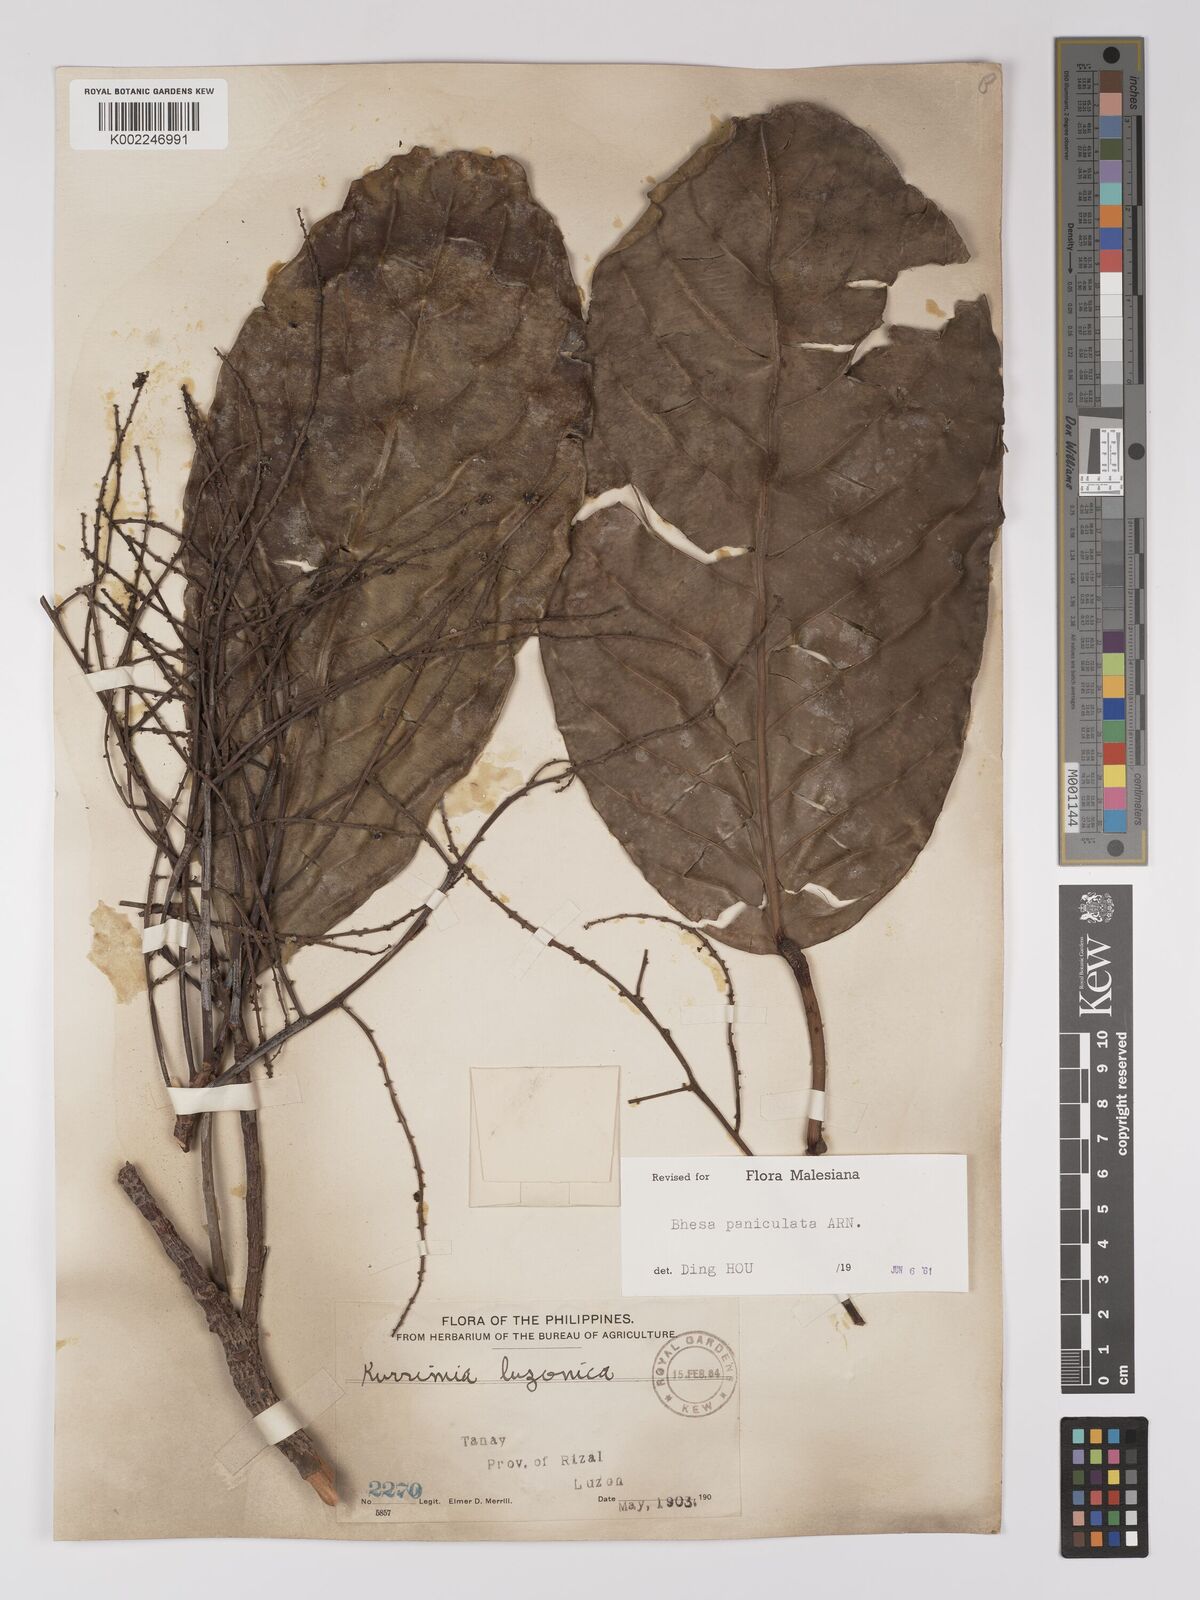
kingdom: Plantae
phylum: Tracheophyta
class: Magnoliopsida
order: Malpighiales
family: Centroplacaceae
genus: Bhesa
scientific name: Bhesa paniculata
